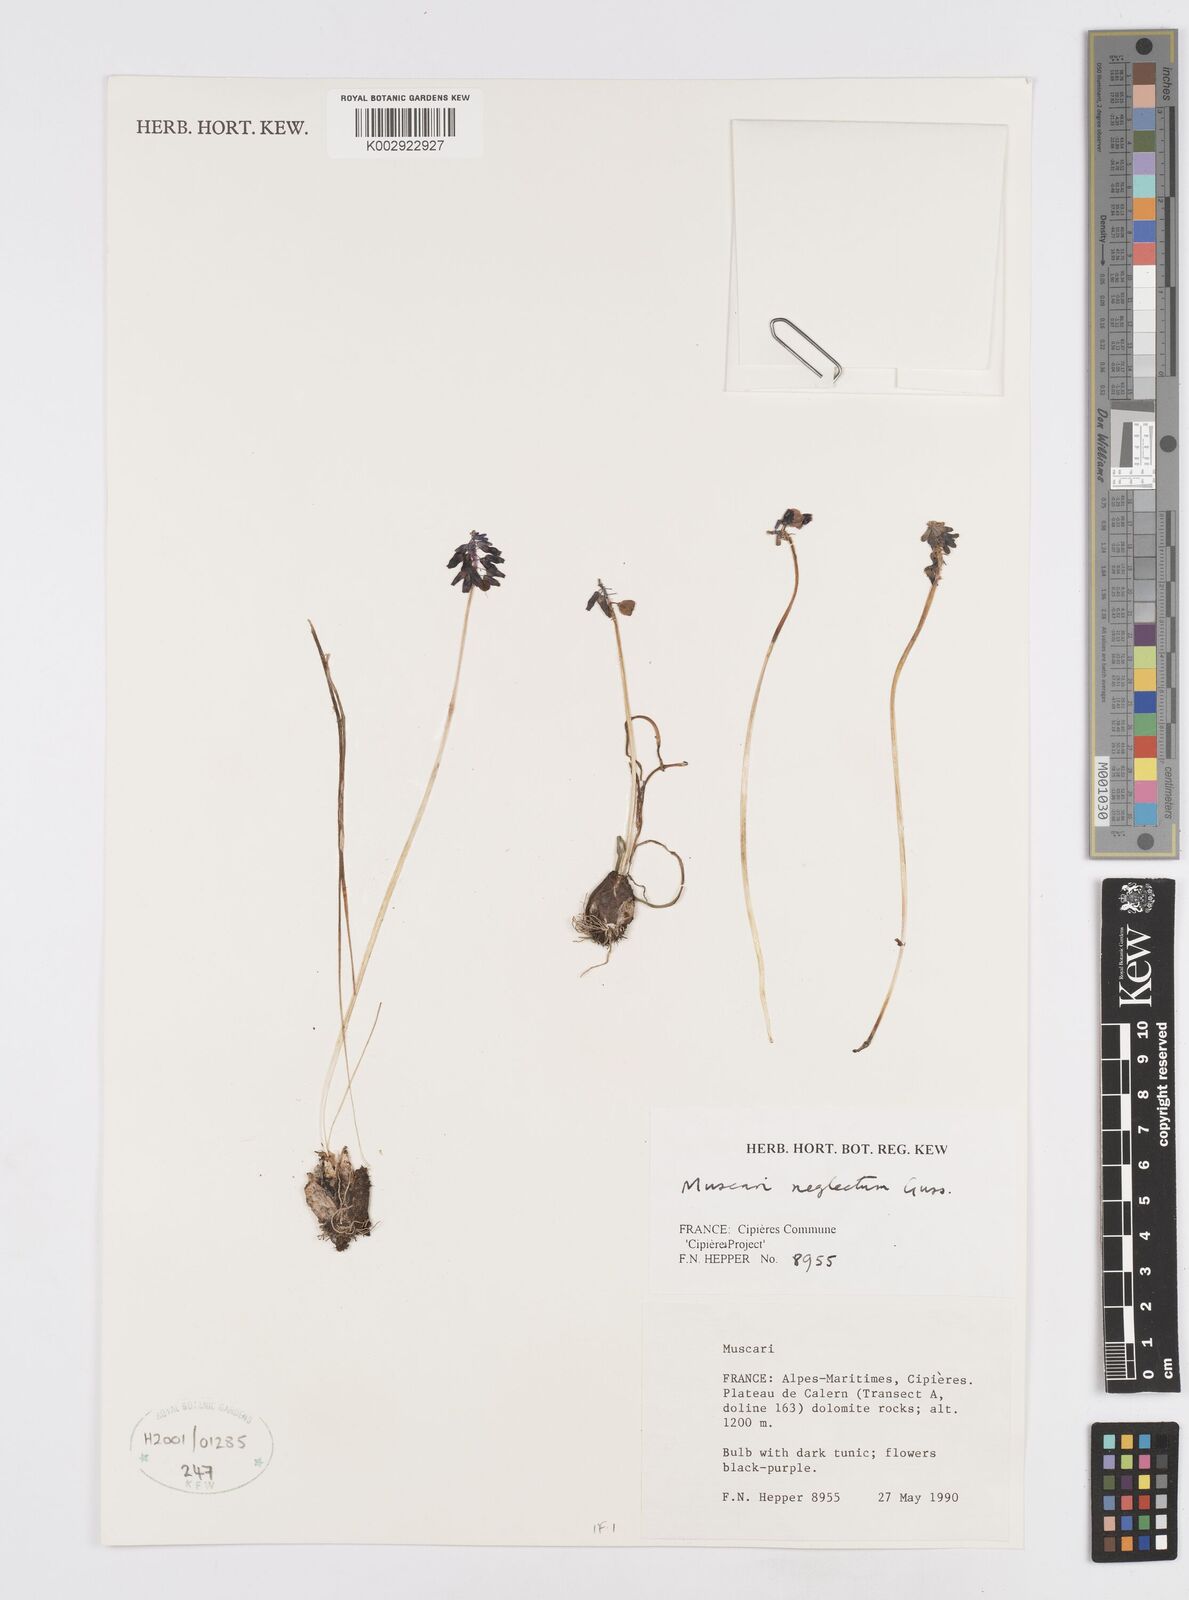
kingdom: Plantae
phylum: Tracheophyta
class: Liliopsida
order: Asparagales
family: Asparagaceae
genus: Muscarimia
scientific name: Muscarimia muscari
